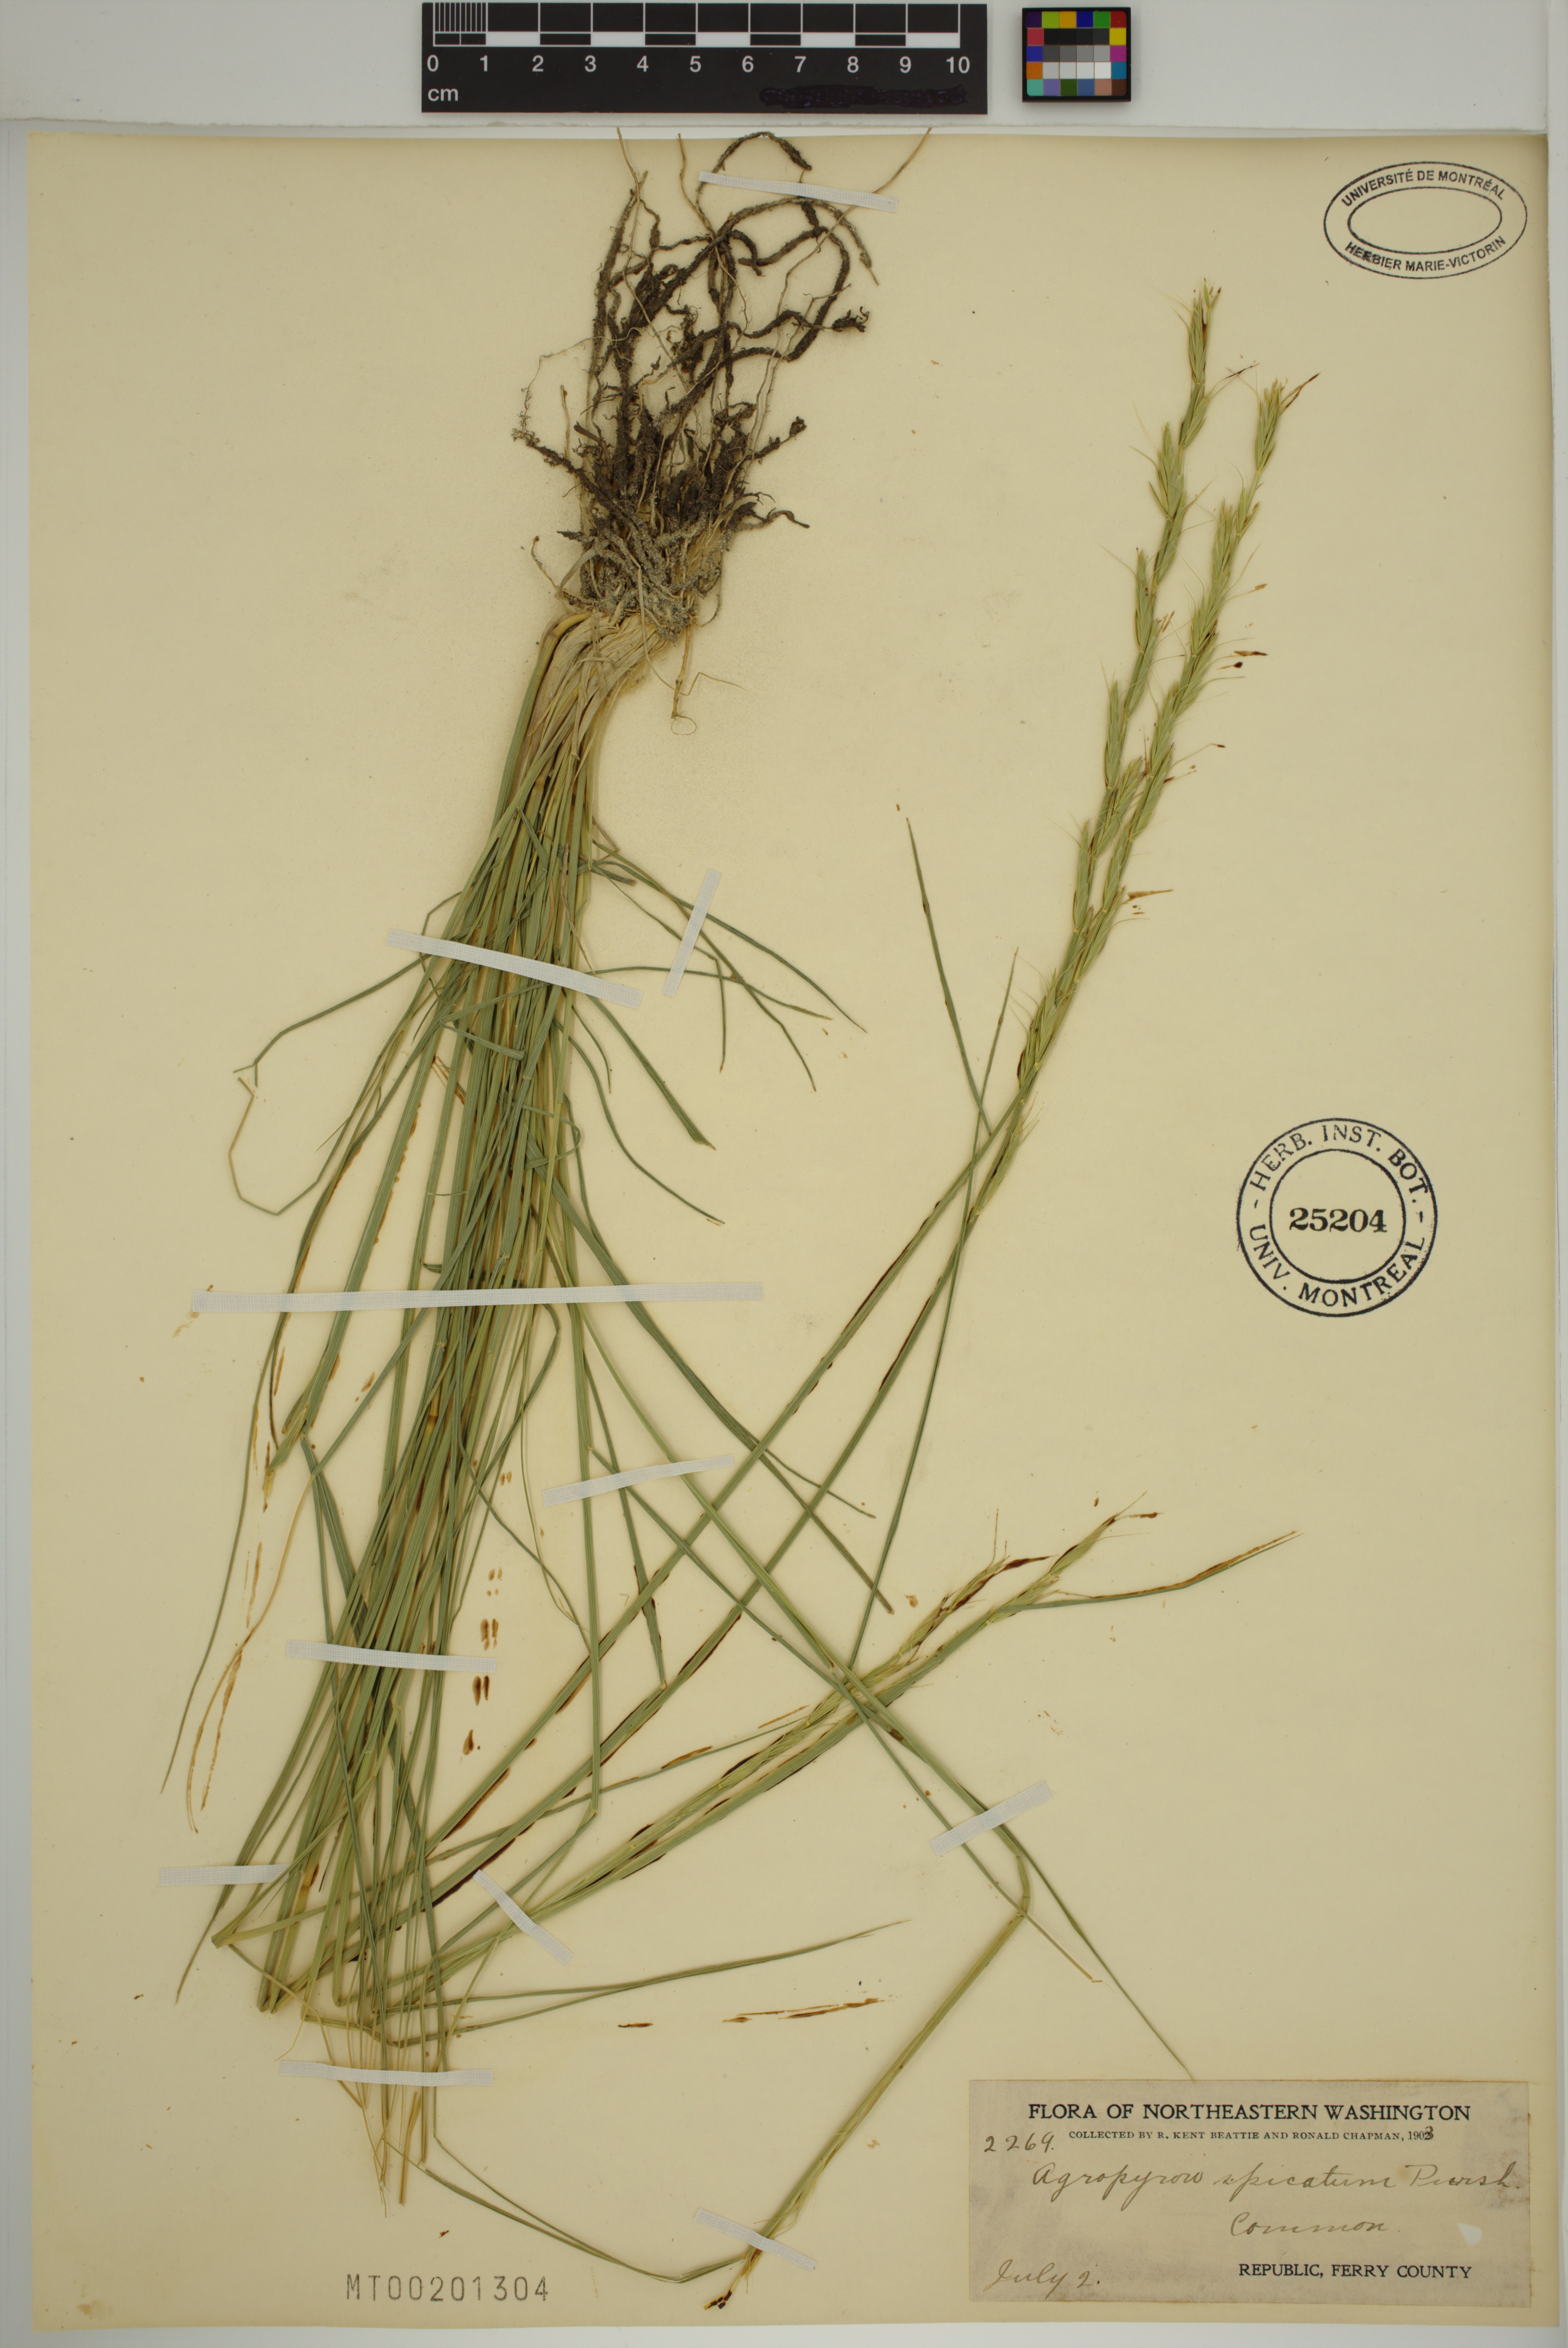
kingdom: Plantae
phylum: Tracheophyta
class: Liliopsida
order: Poales
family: Poaceae
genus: Pseudoroegneria
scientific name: Pseudoroegneria spicata
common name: Bluebunch wheatgrass
